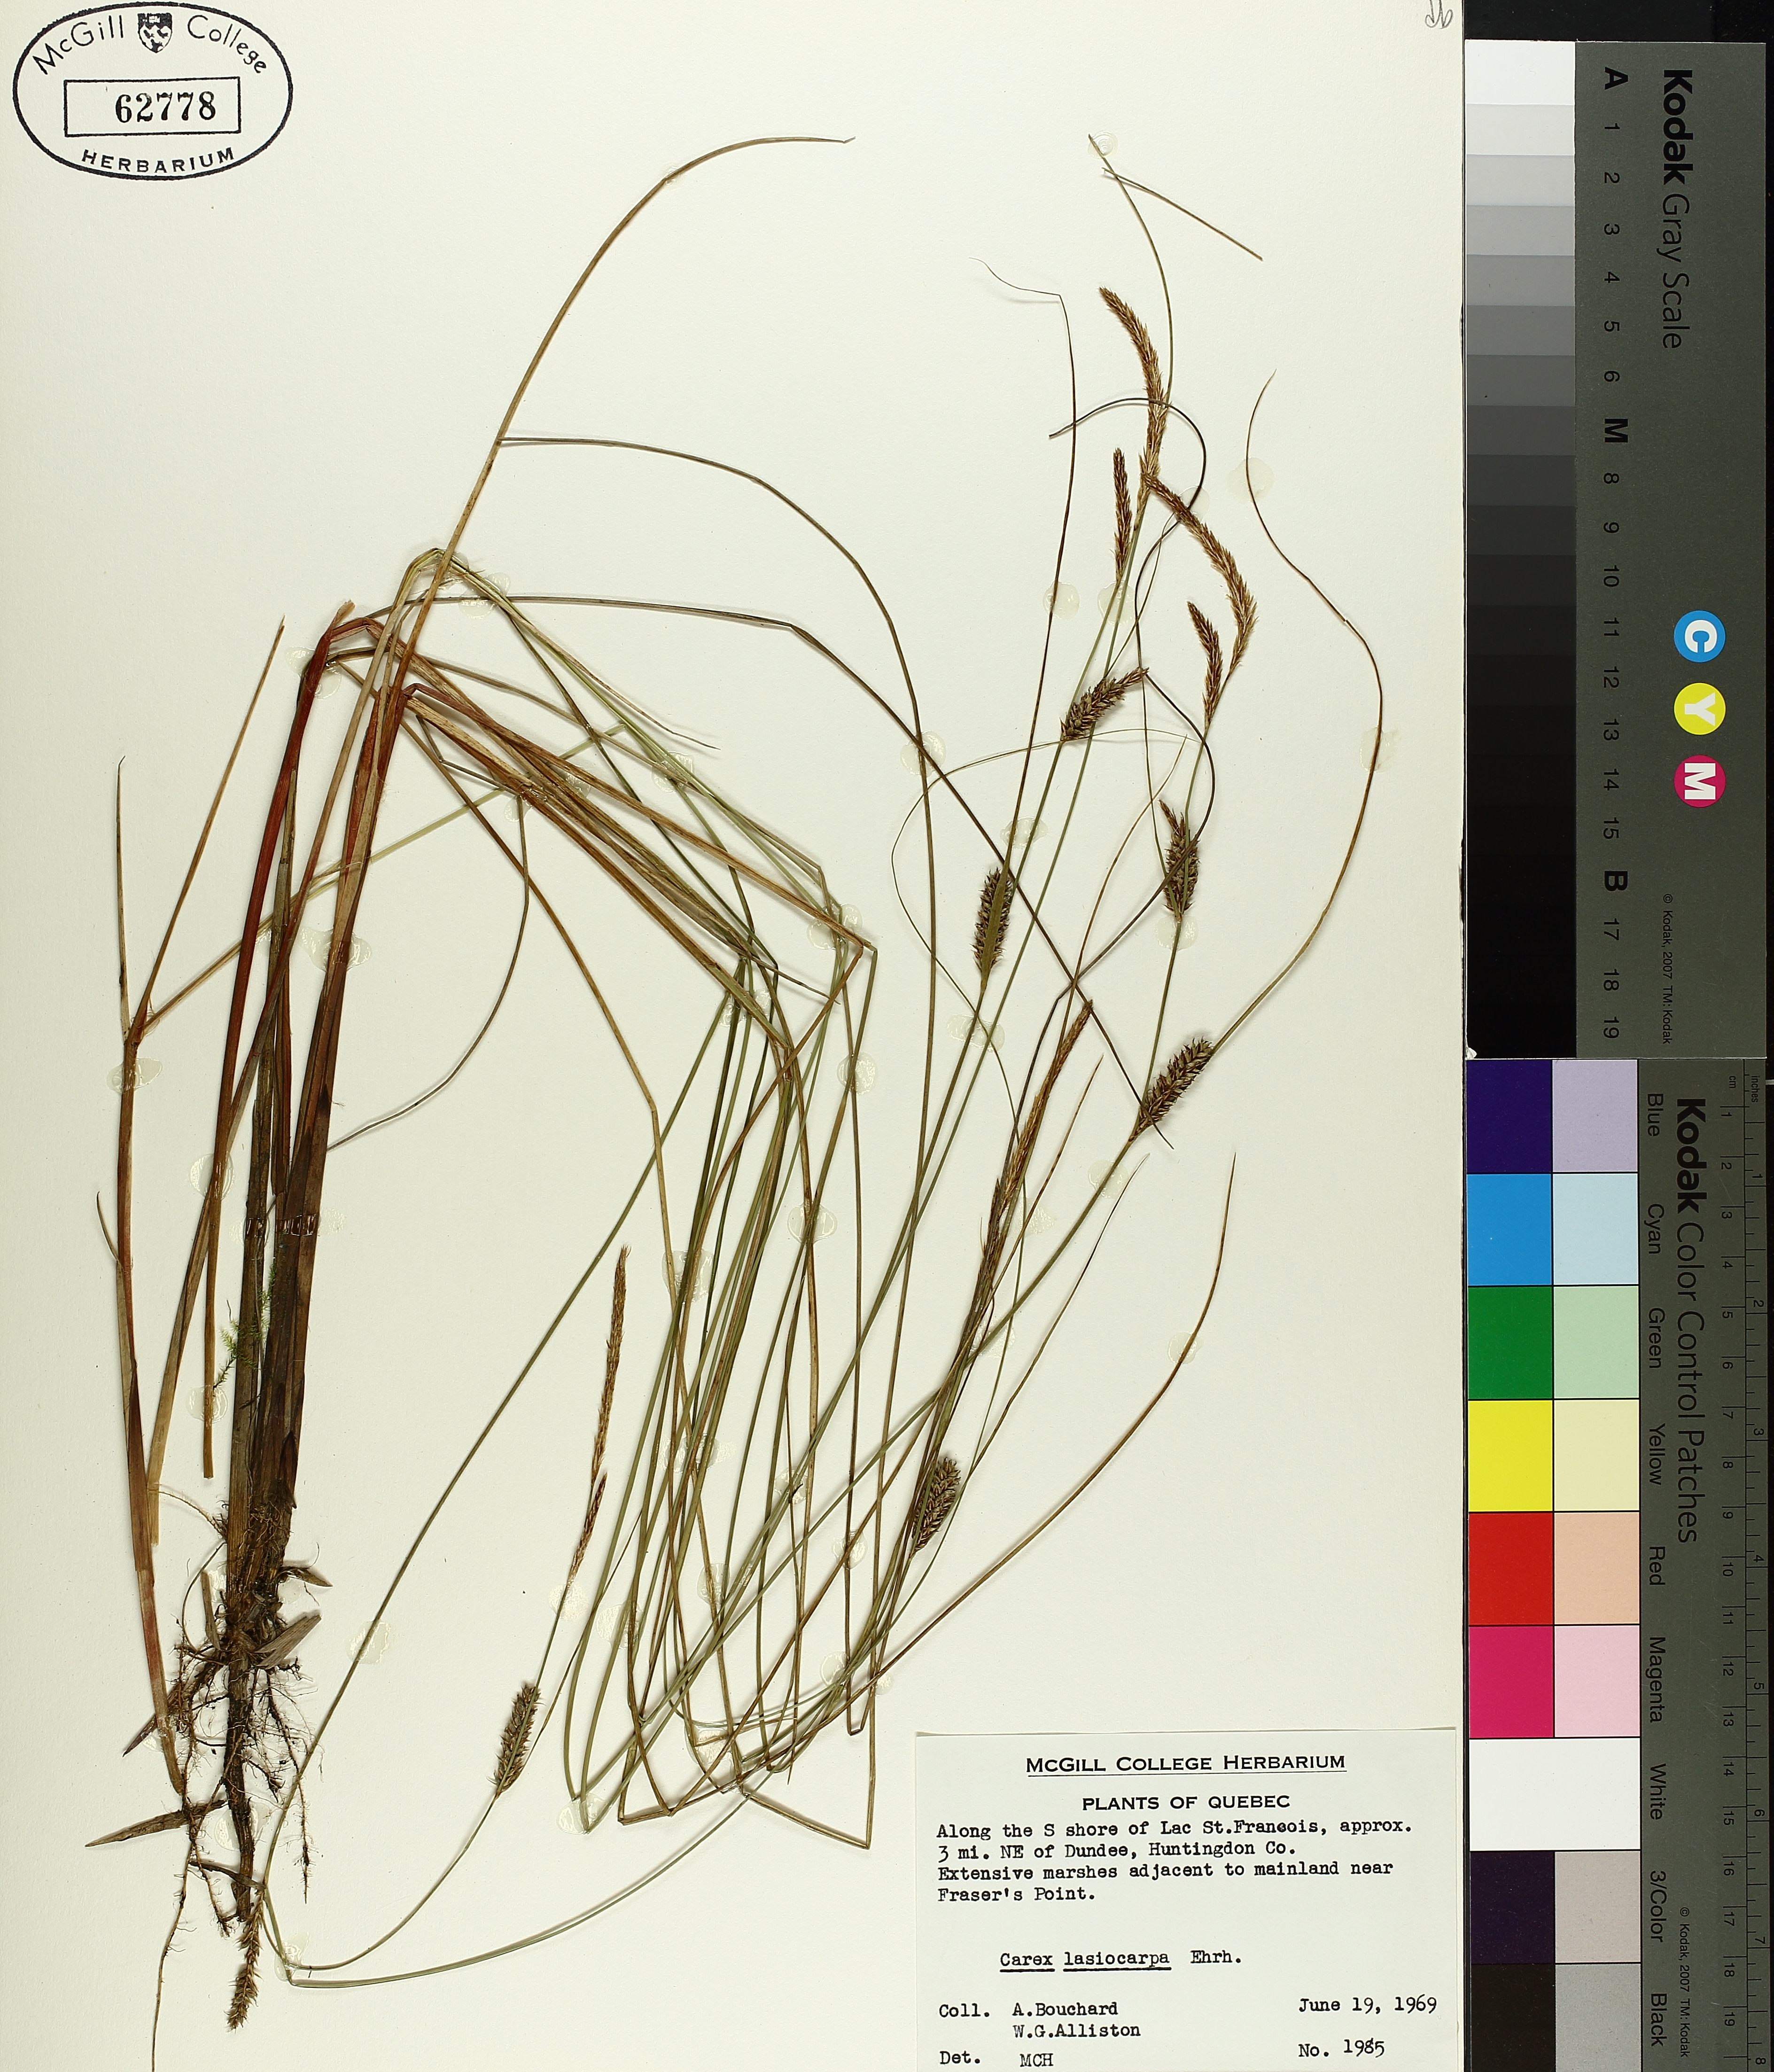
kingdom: Plantae
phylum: Tracheophyta
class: Liliopsida
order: Poales
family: Cyperaceae
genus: Carex
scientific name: Carex lasiocarpa
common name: Slender sedge
